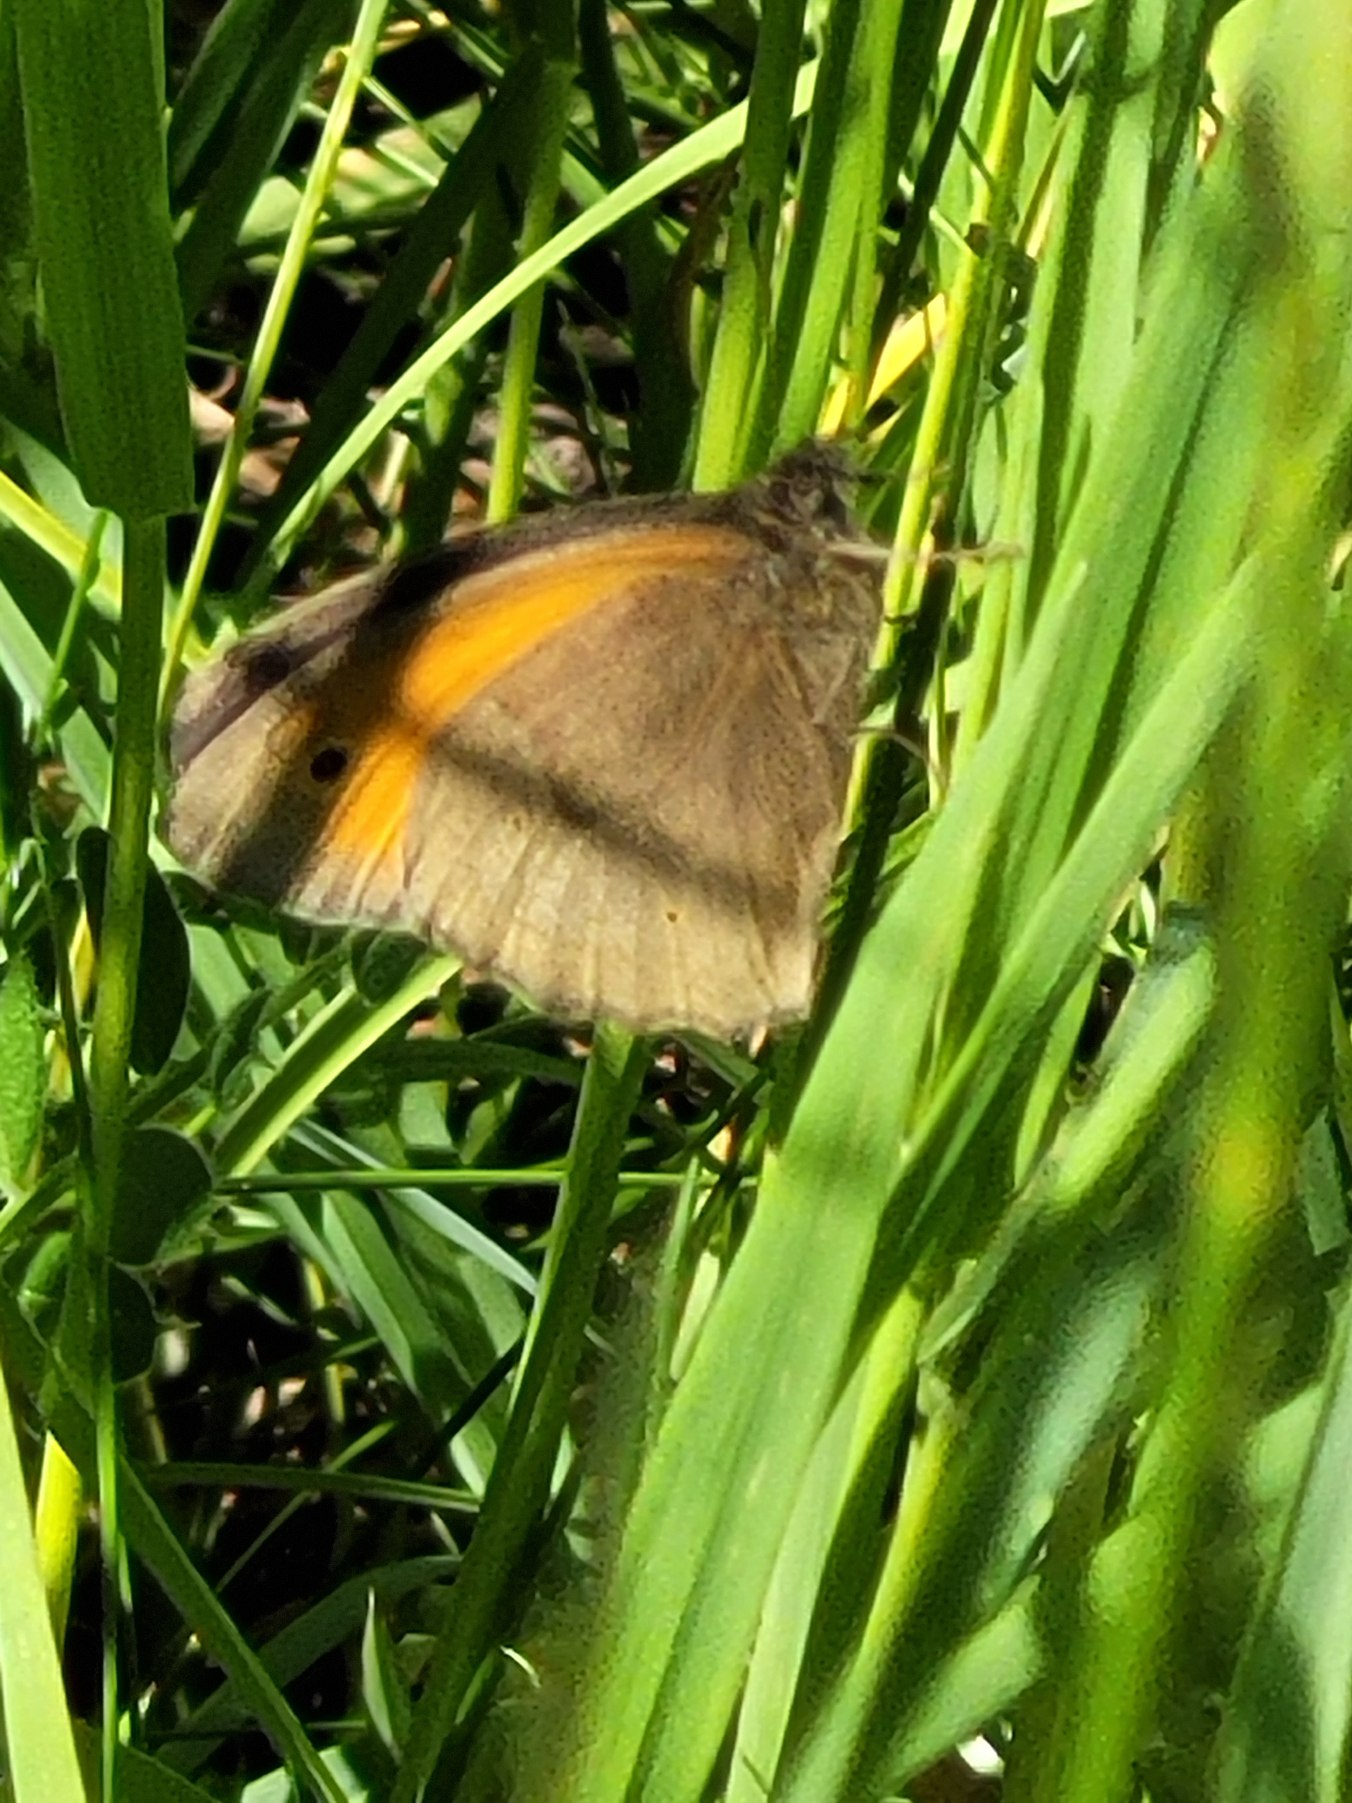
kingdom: Animalia
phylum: Arthropoda
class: Insecta
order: Lepidoptera
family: Nymphalidae
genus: Maniola
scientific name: Maniola jurtina
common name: Græsrandøje
